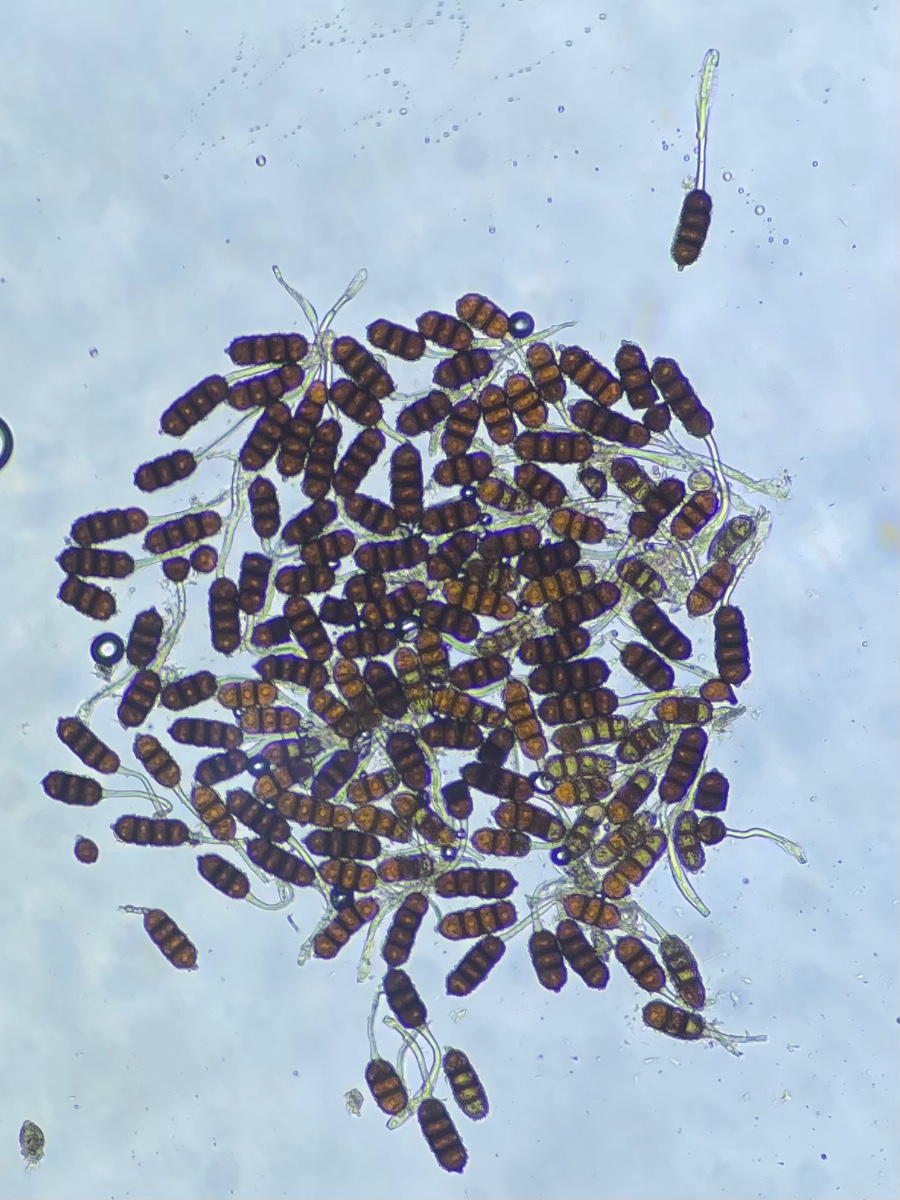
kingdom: Fungi
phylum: Basidiomycota
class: Pucciniomycetes
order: Pucciniales
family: Phragmidiaceae
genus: Phragmidium
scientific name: Phragmidium violaceum
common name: violet flercellerust
